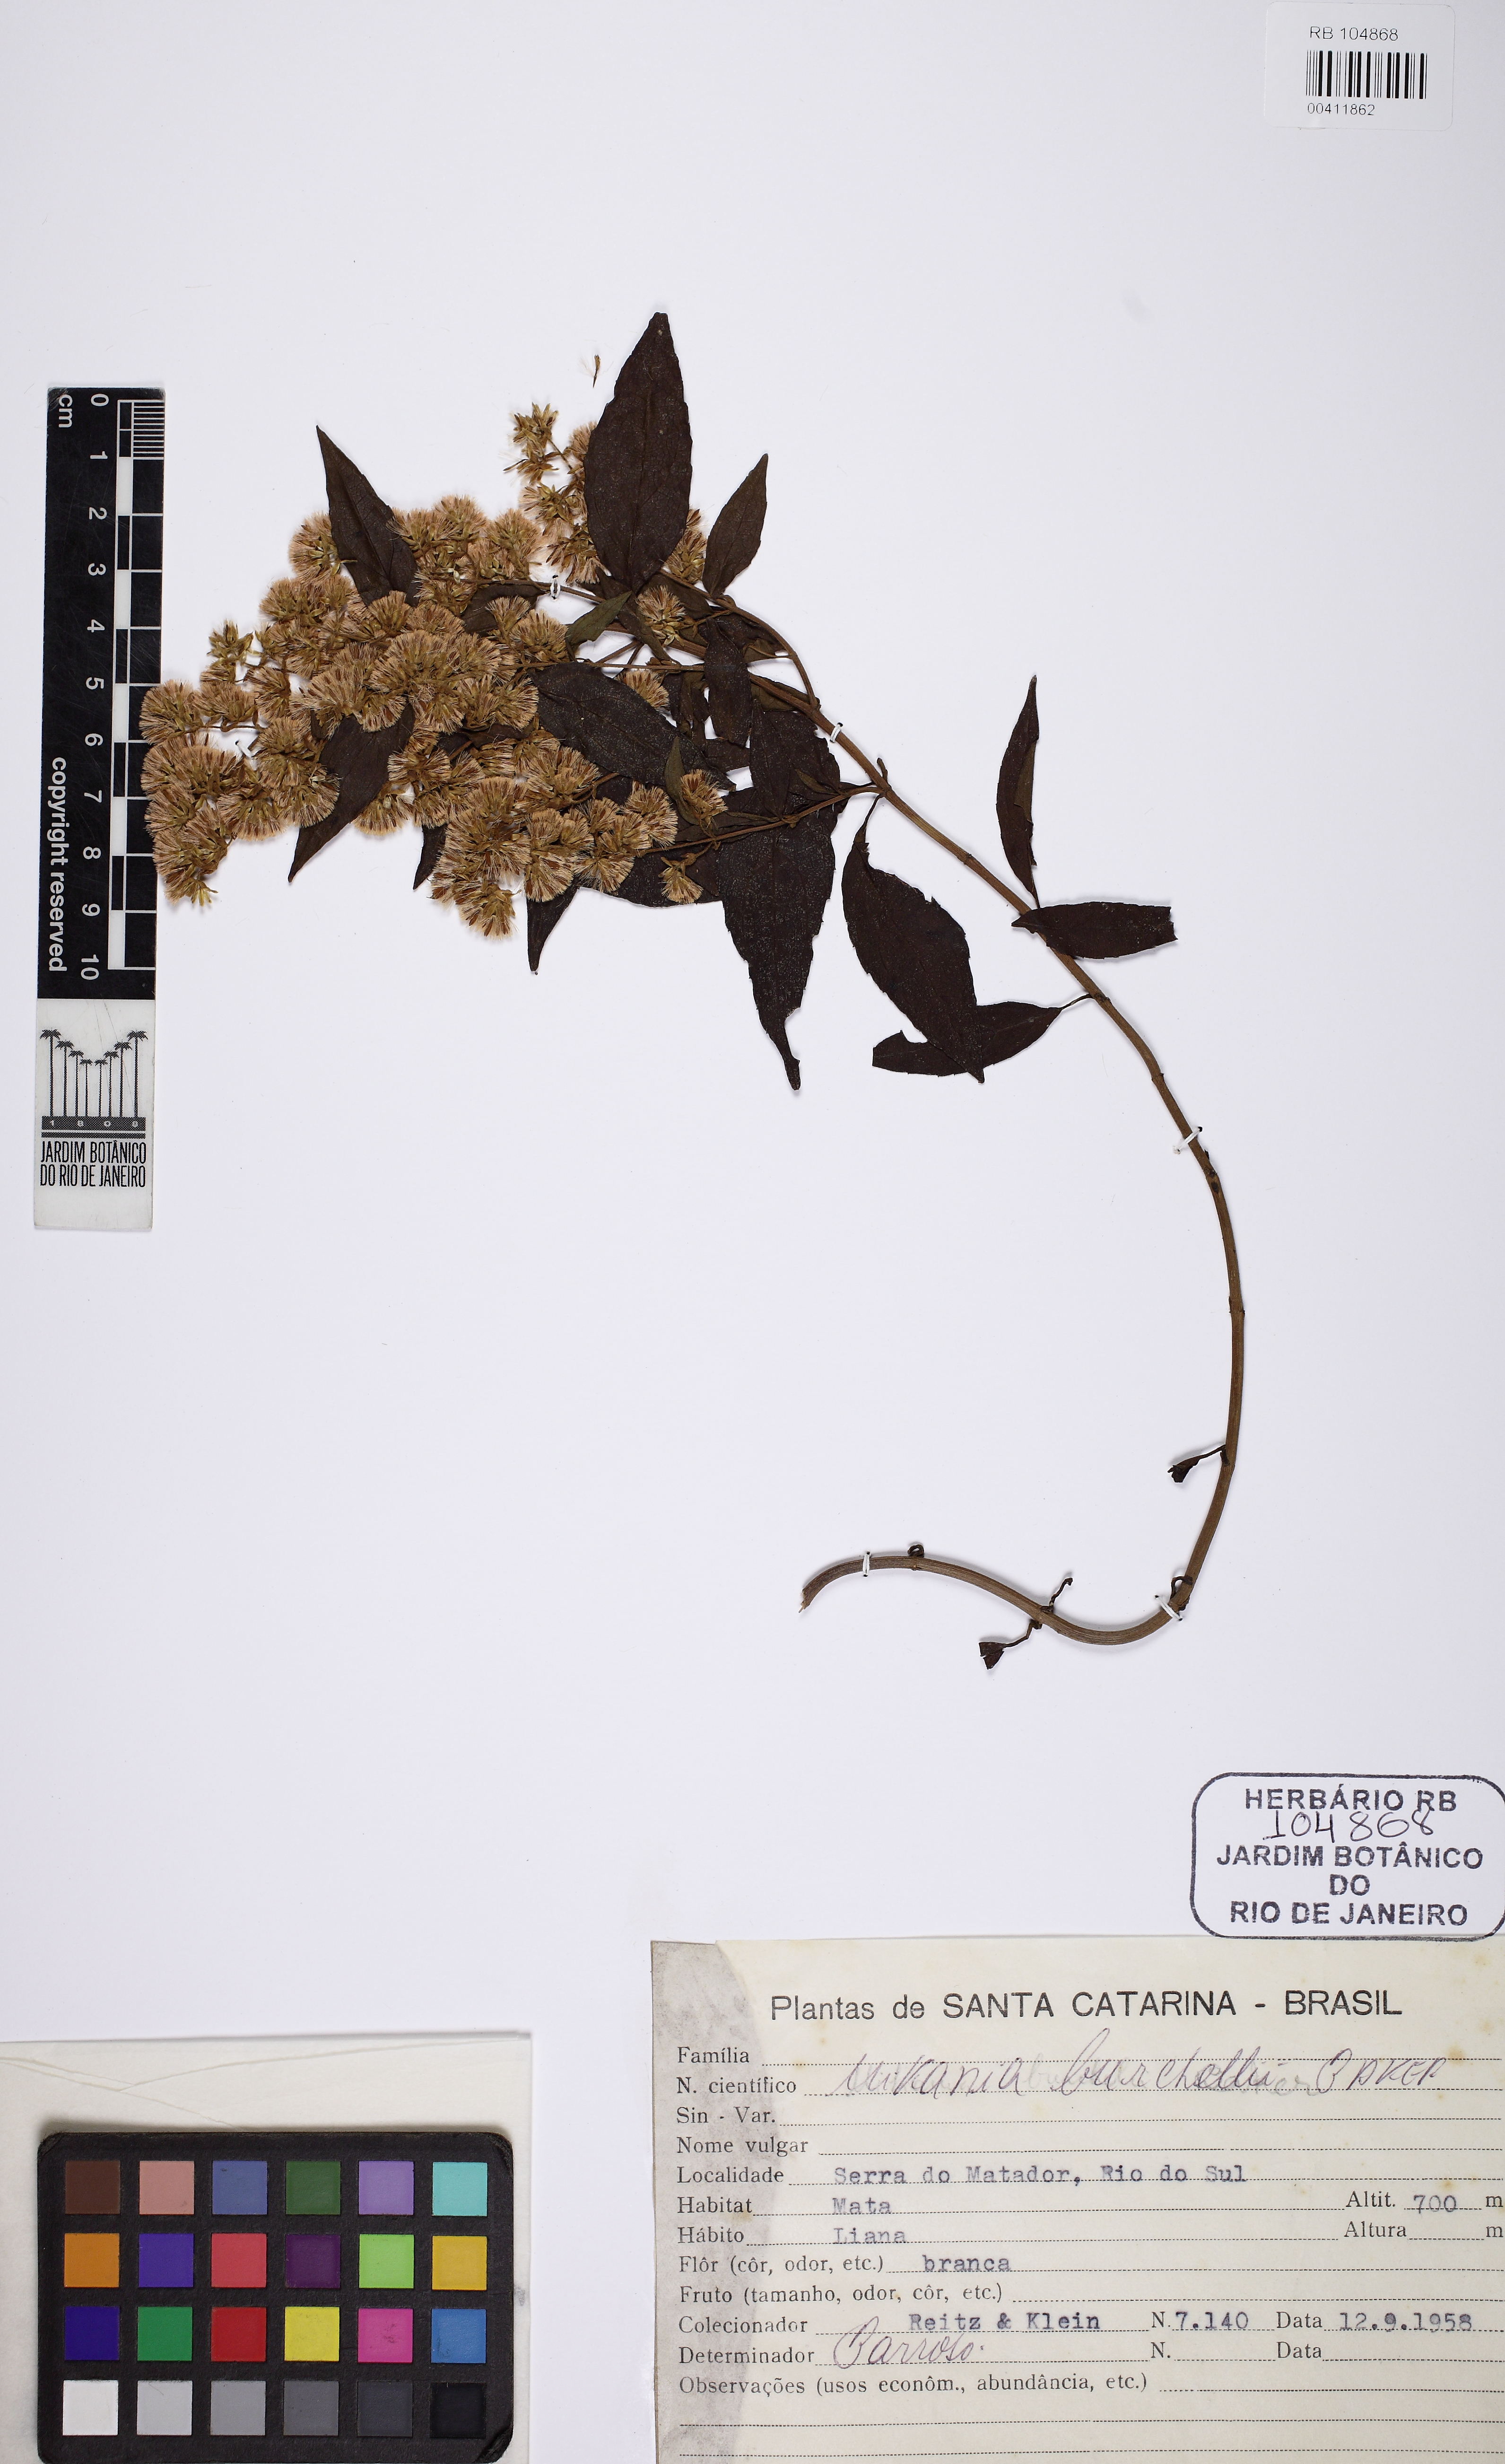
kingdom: Plantae
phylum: Tracheophyta
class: Magnoliopsida
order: Asterales
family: Asteraceae
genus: Mikania
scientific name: Mikania burchellii
